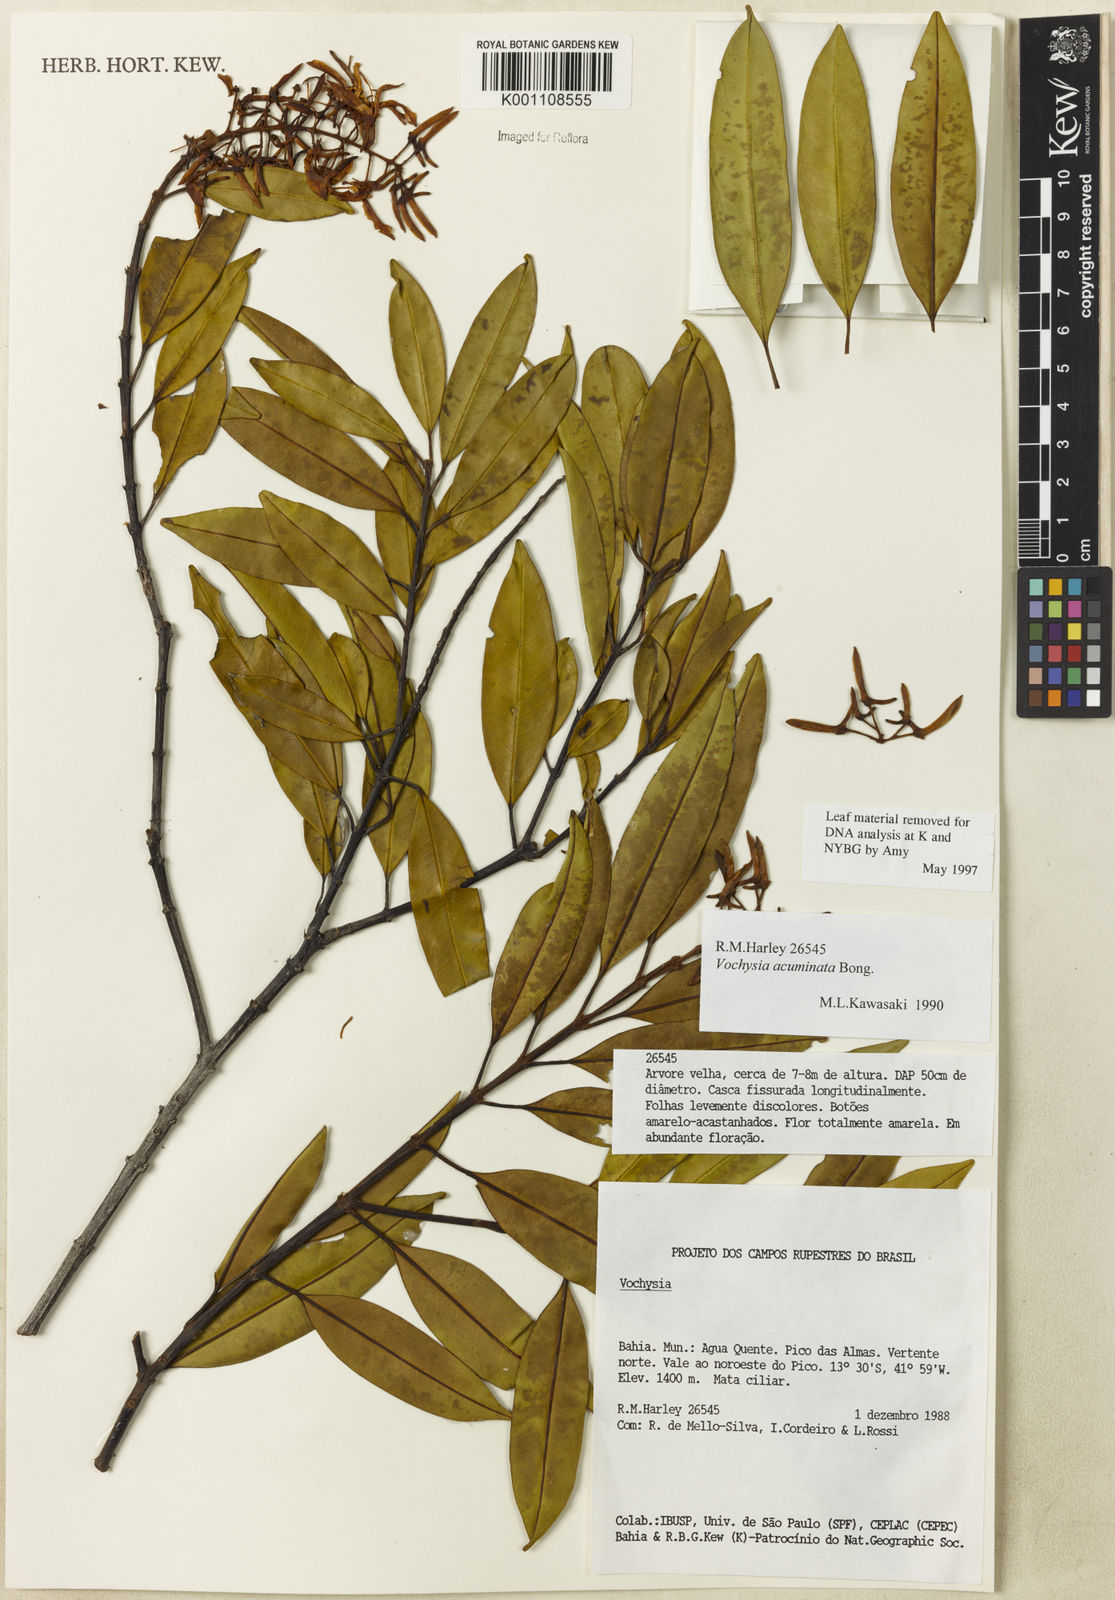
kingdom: Plantae
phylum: Tracheophyta
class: Magnoliopsida
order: Myrtales
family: Vochysiaceae
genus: Vochysia
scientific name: Vochysia acuminata
